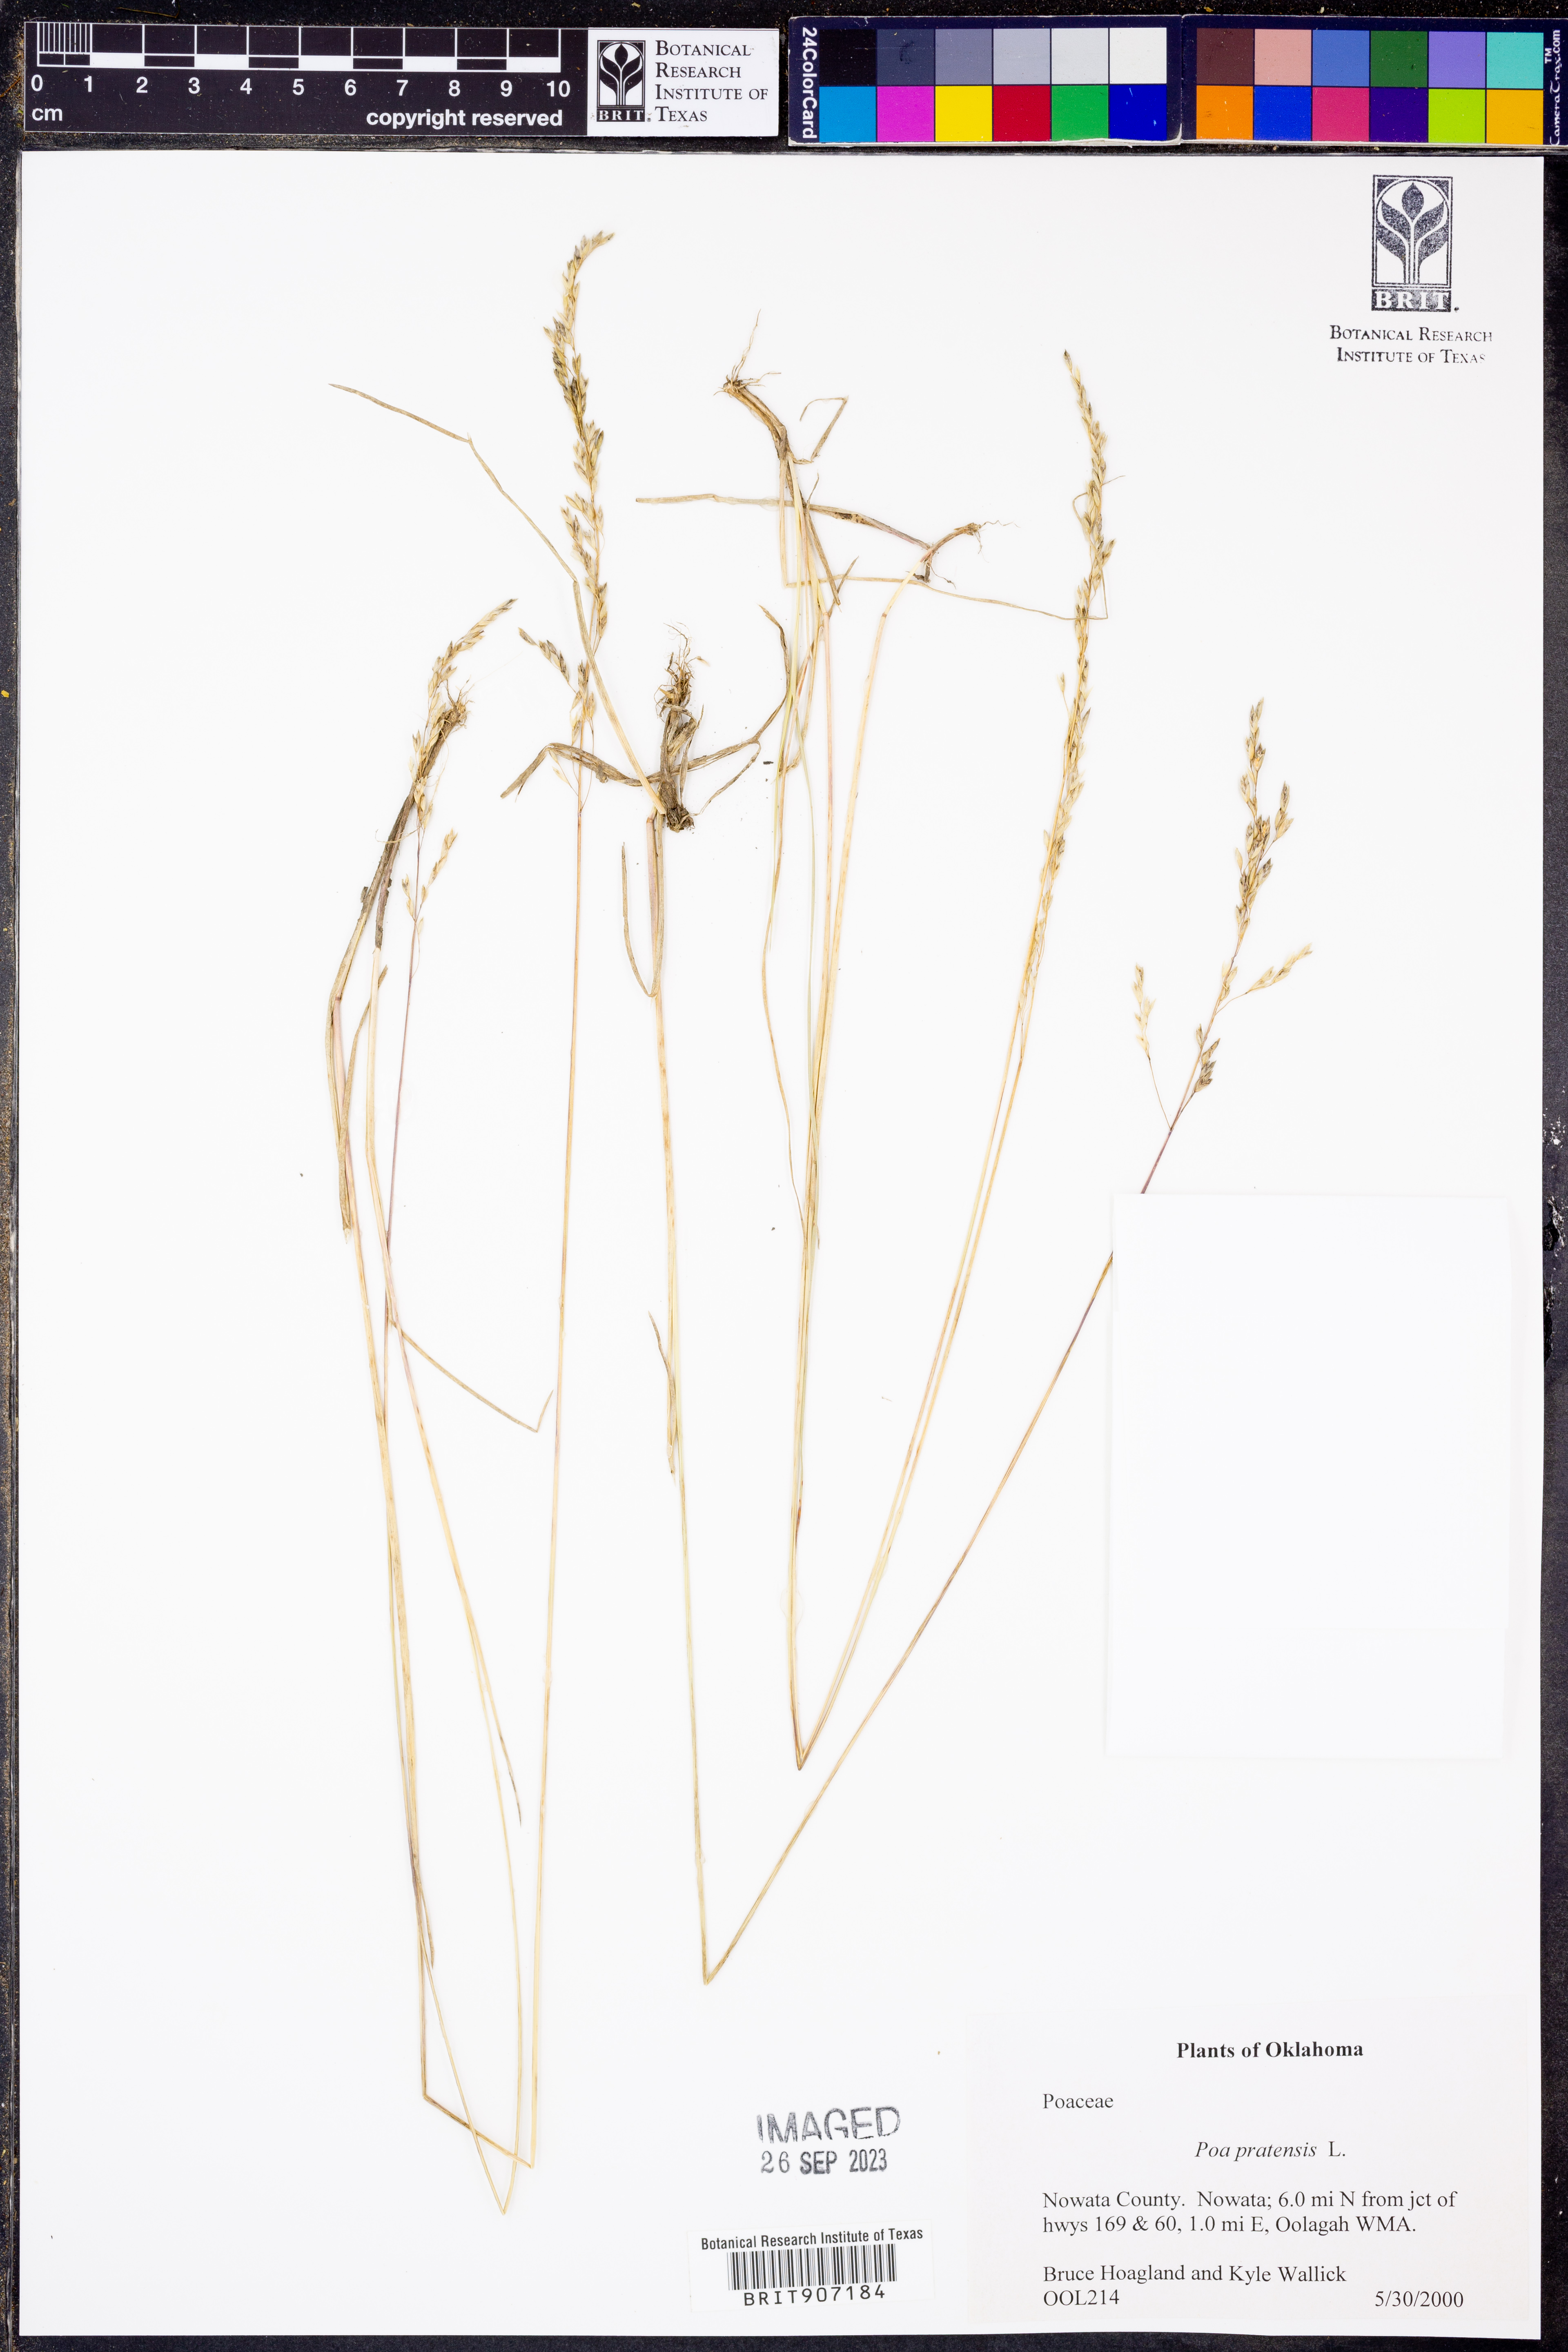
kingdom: Plantae
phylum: Tracheophyta
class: Liliopsida
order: Poales
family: Poaceae
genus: Poa
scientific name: Poa pratensis
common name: Kentucky bluegrass
